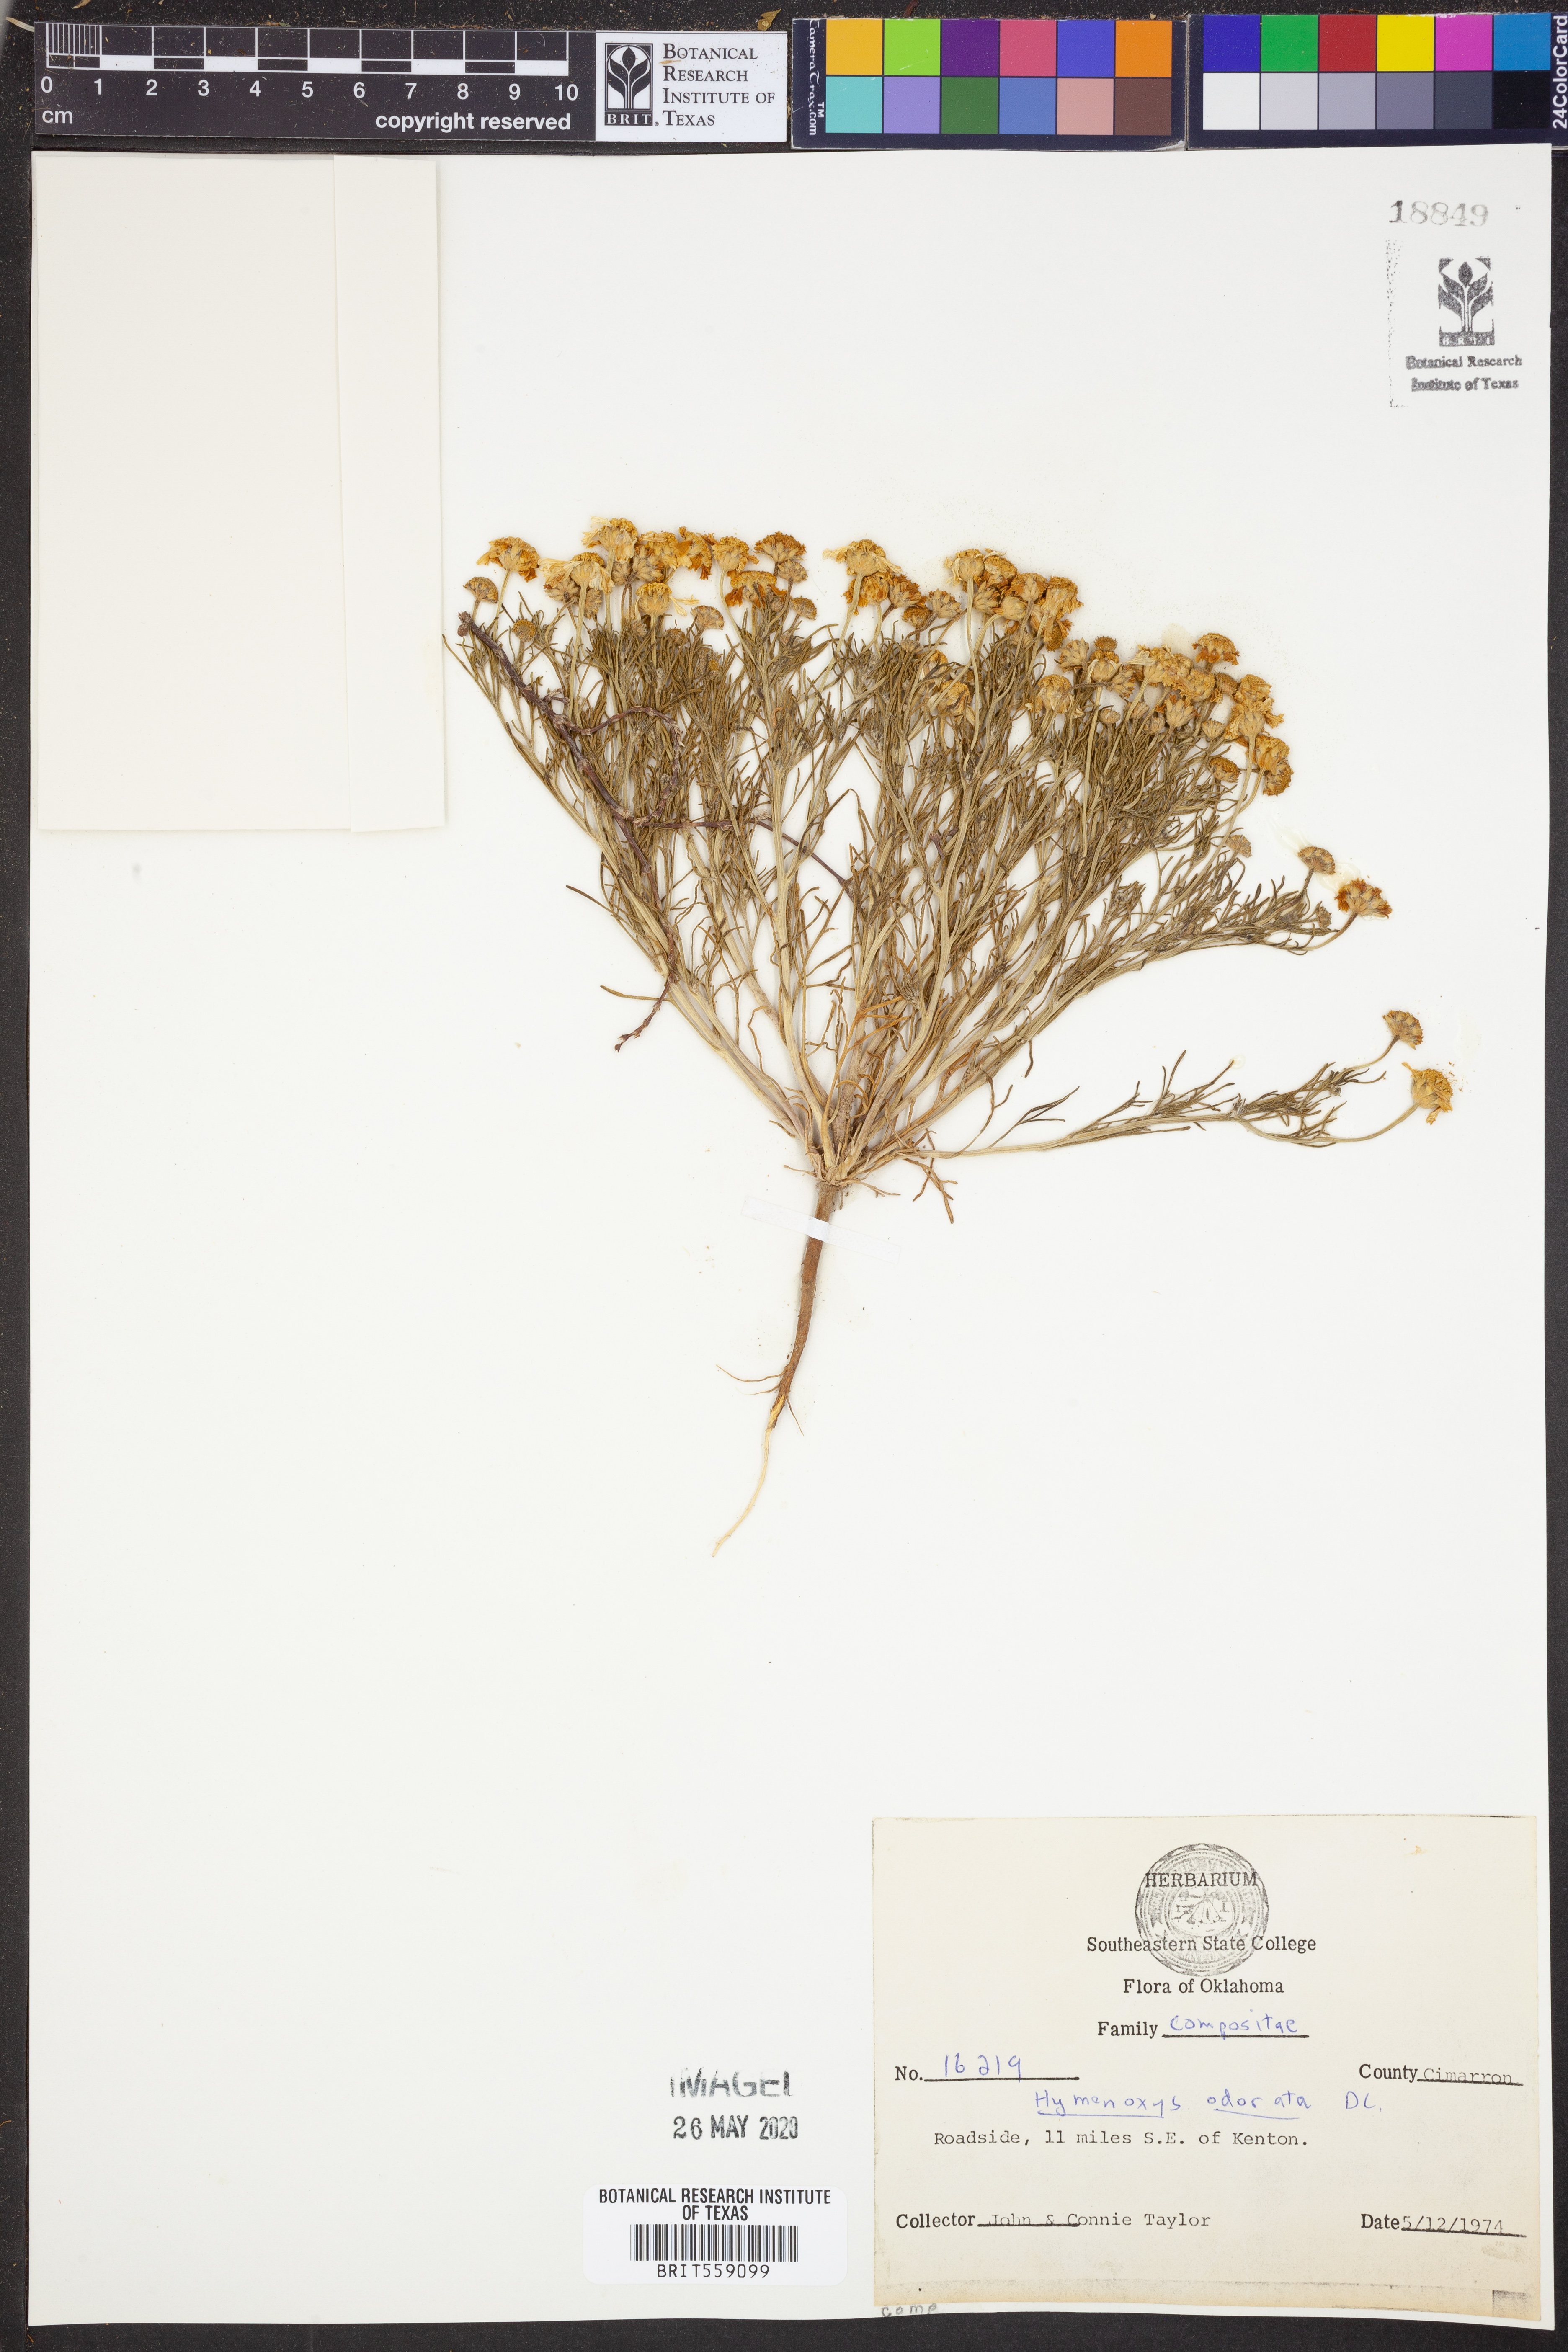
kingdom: Plantae
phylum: Tracheophyta
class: Magnoliopsida
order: Asterales
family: Asteraceae
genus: Hymenoxys
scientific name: Hymenoxys odorata
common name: Bitter rubberweed
